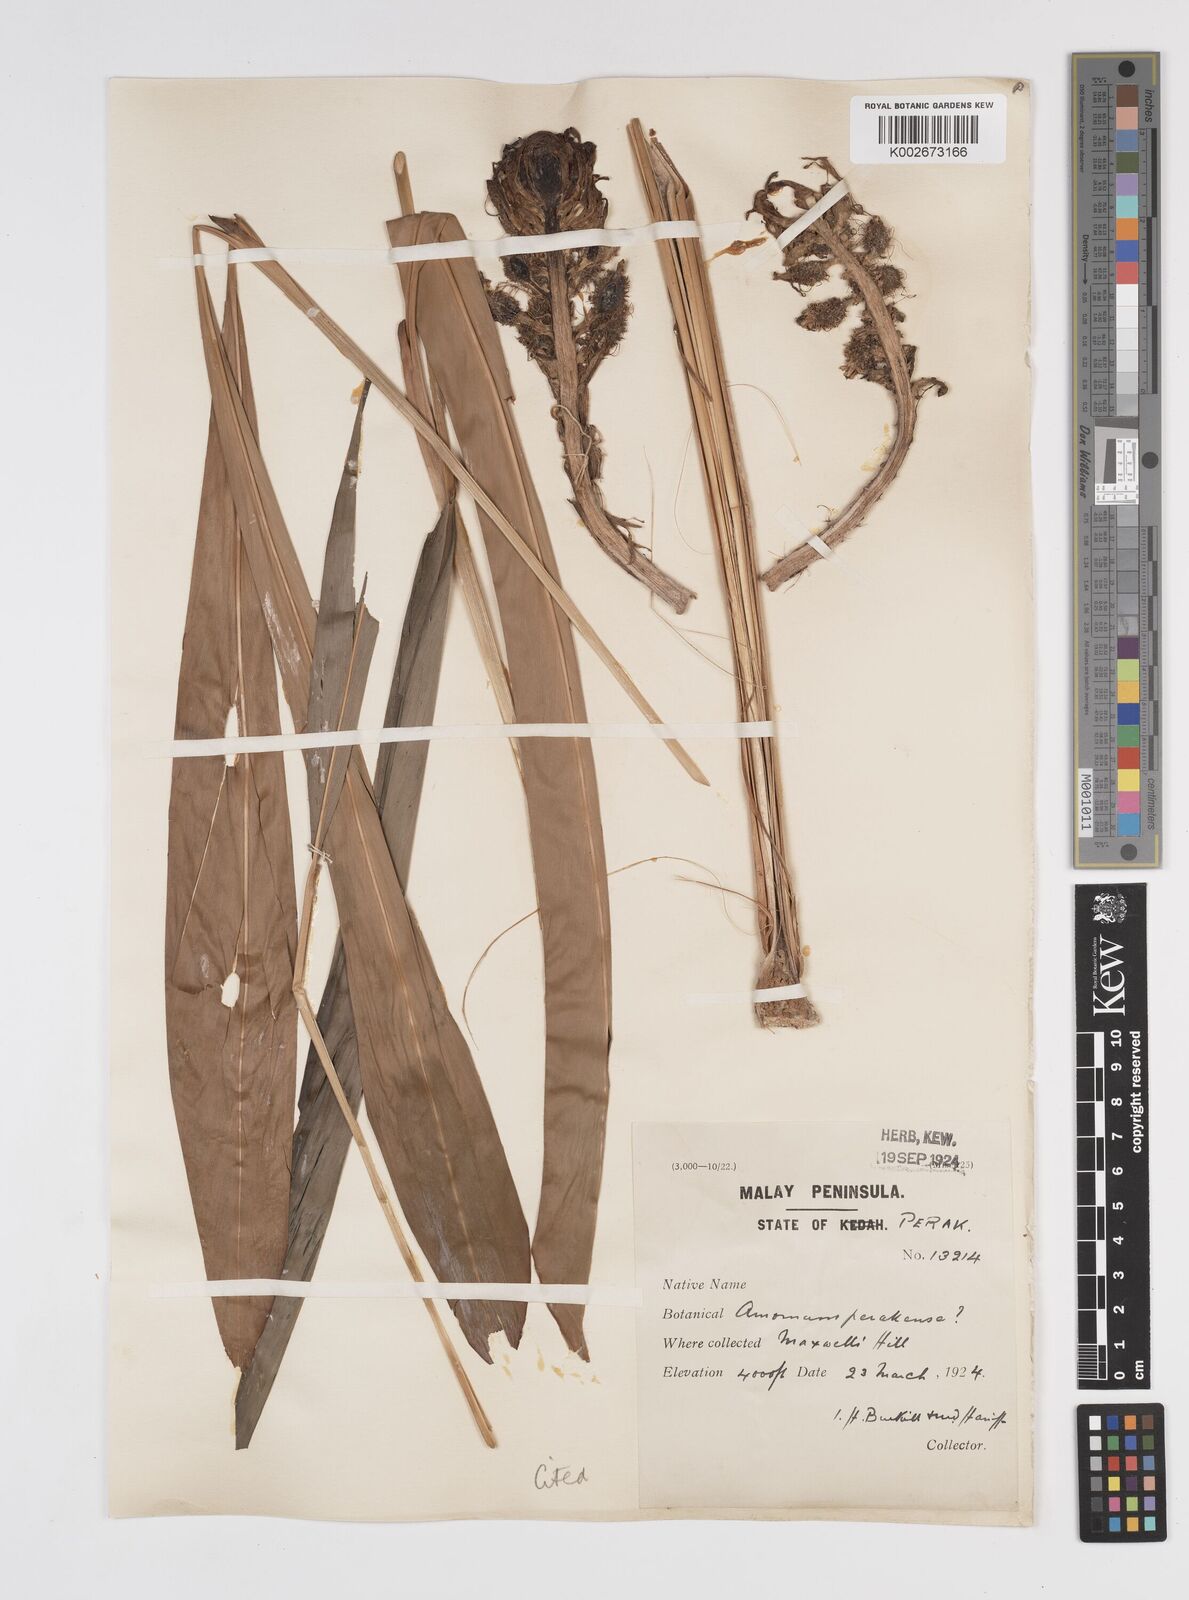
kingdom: Plantae
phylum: Tracheophyta
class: Liliopsida
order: Zingiberales
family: Zingiberaceae
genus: Meistera
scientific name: Meistera lappacea
